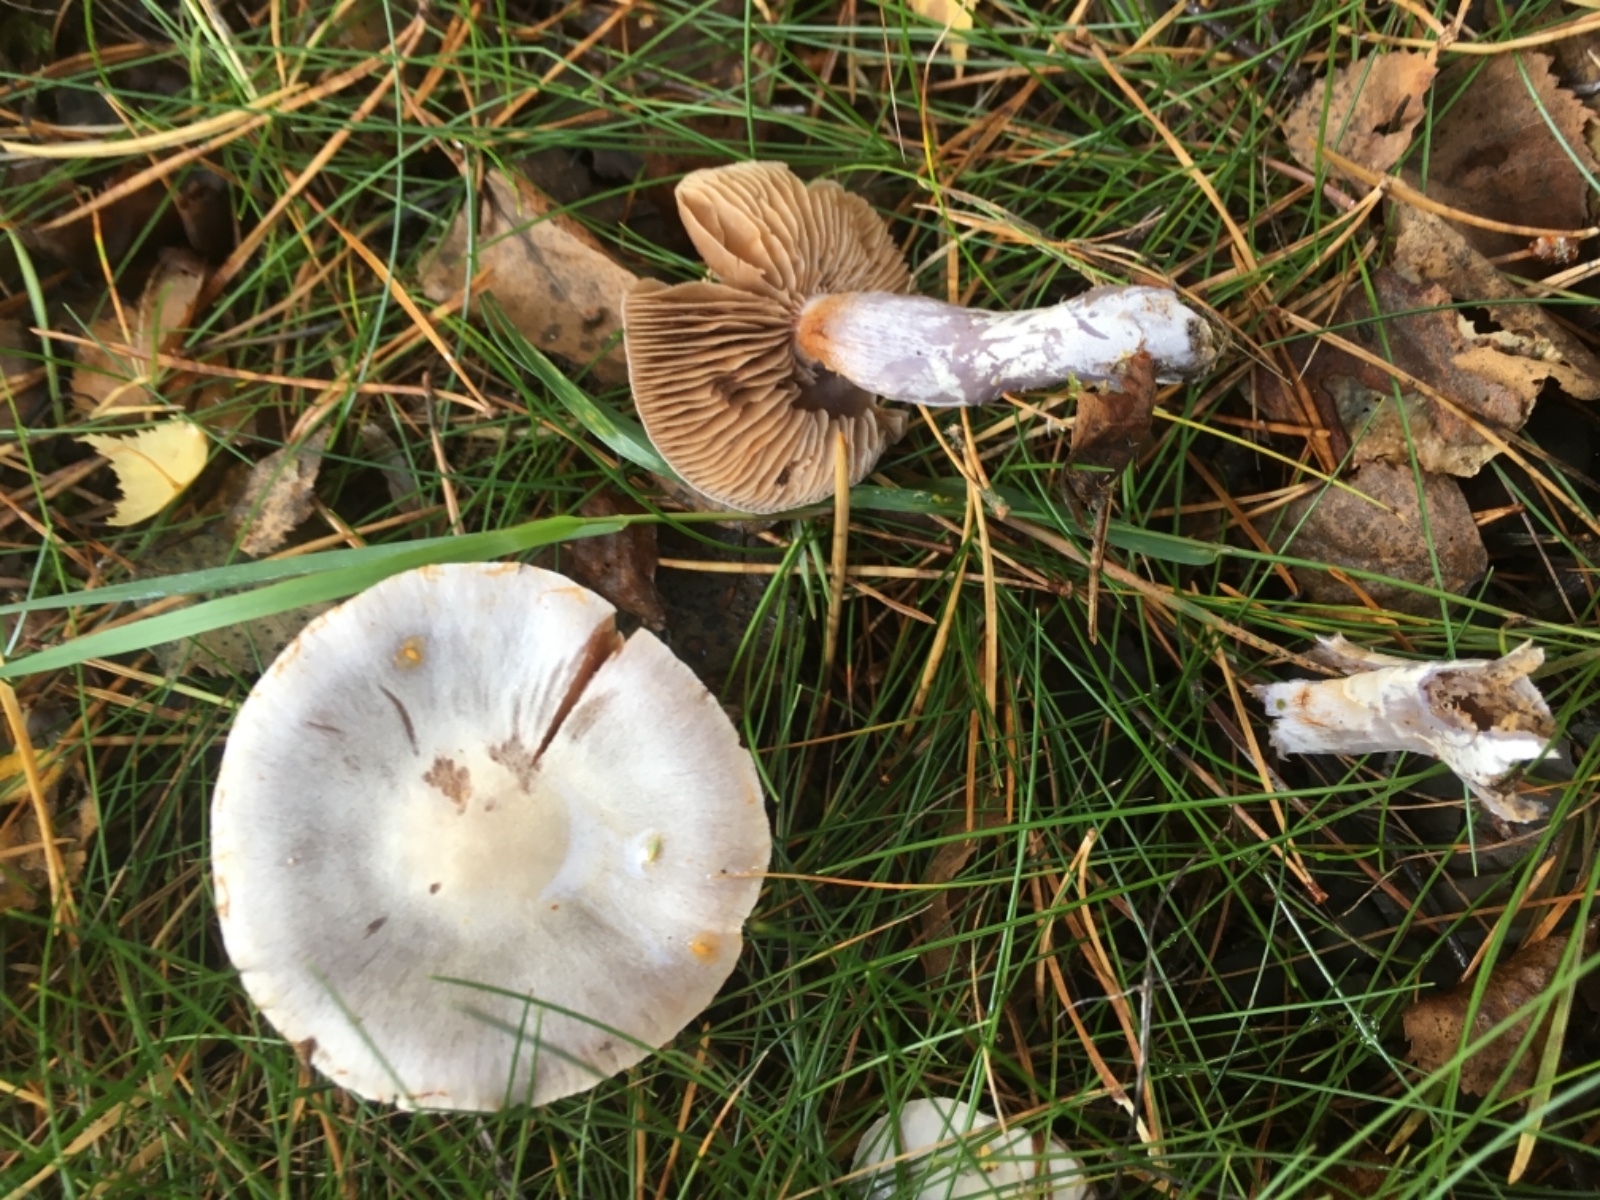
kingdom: Fungi
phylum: Basidiomycota
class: Agaricomycetes
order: Agaricales
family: Cortinariaceae
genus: Cortinarius
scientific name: Cortinarius alboviolaceus
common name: lysviolet slørhat
